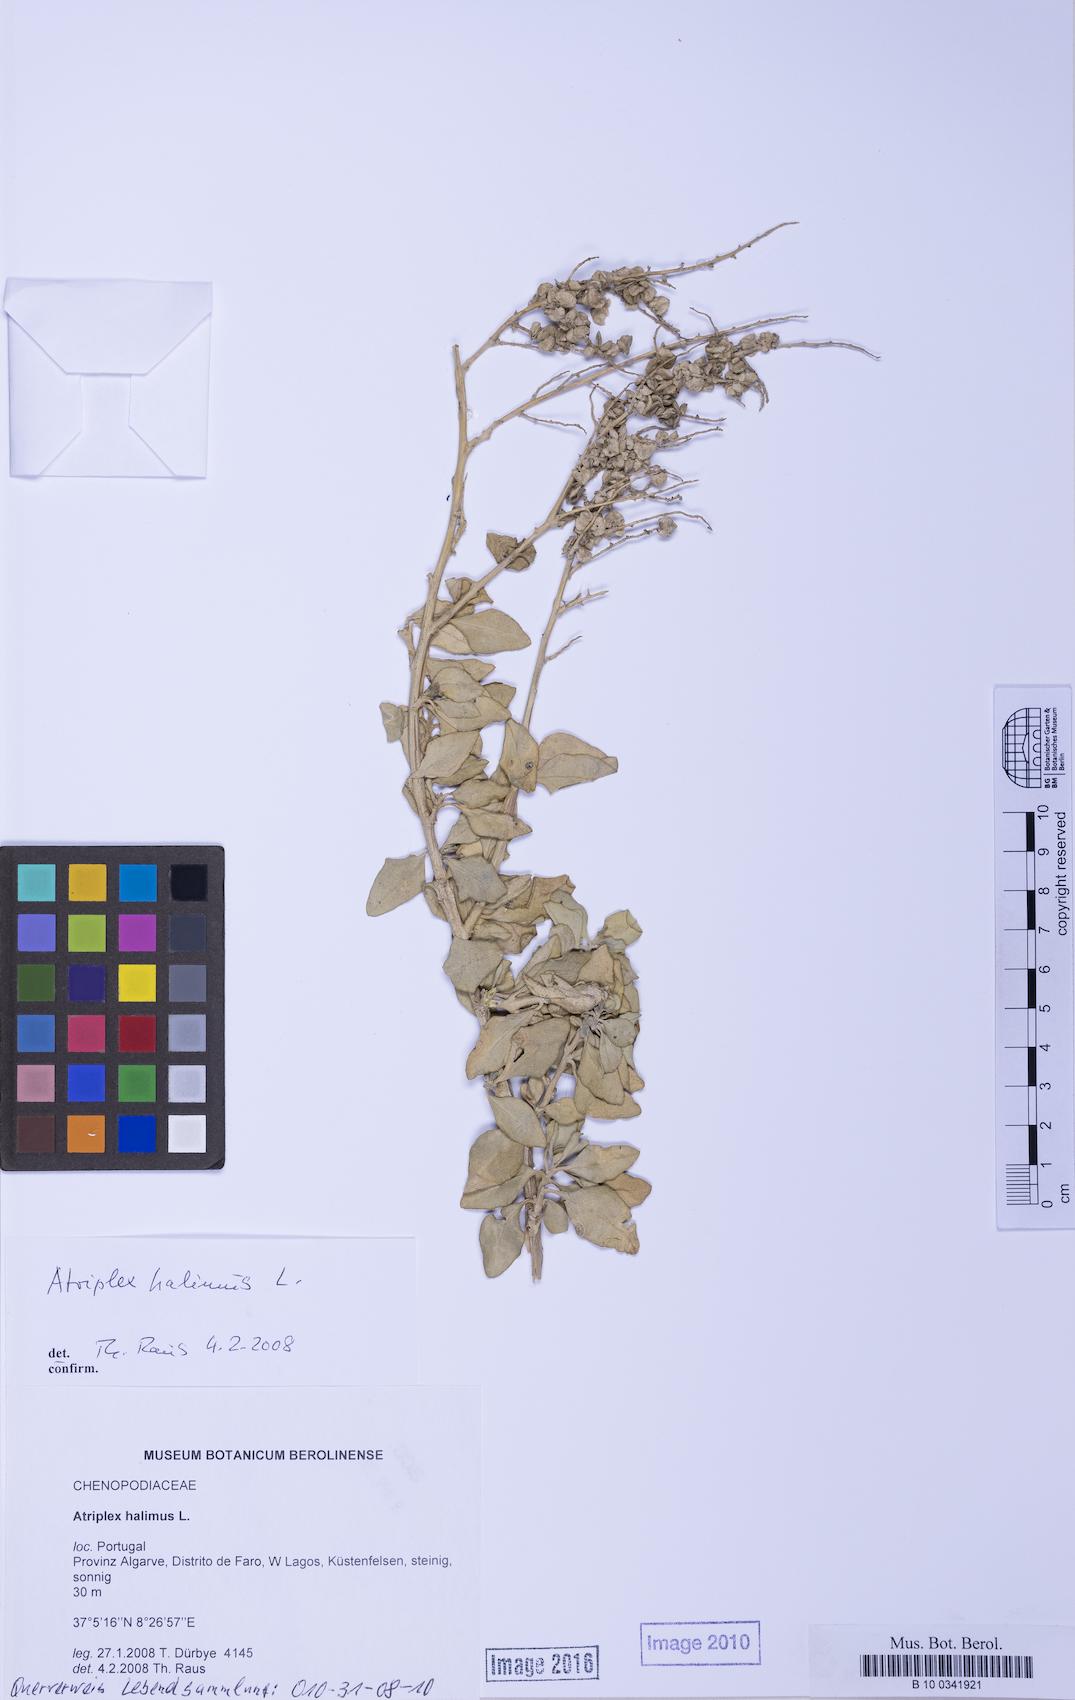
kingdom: Plantae
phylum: Tracheophyta
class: Magnoliopsida
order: Caryophyllales
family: Amaranthaceae
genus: Atriplex
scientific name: Atriplex halimus
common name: Shrubby orache
